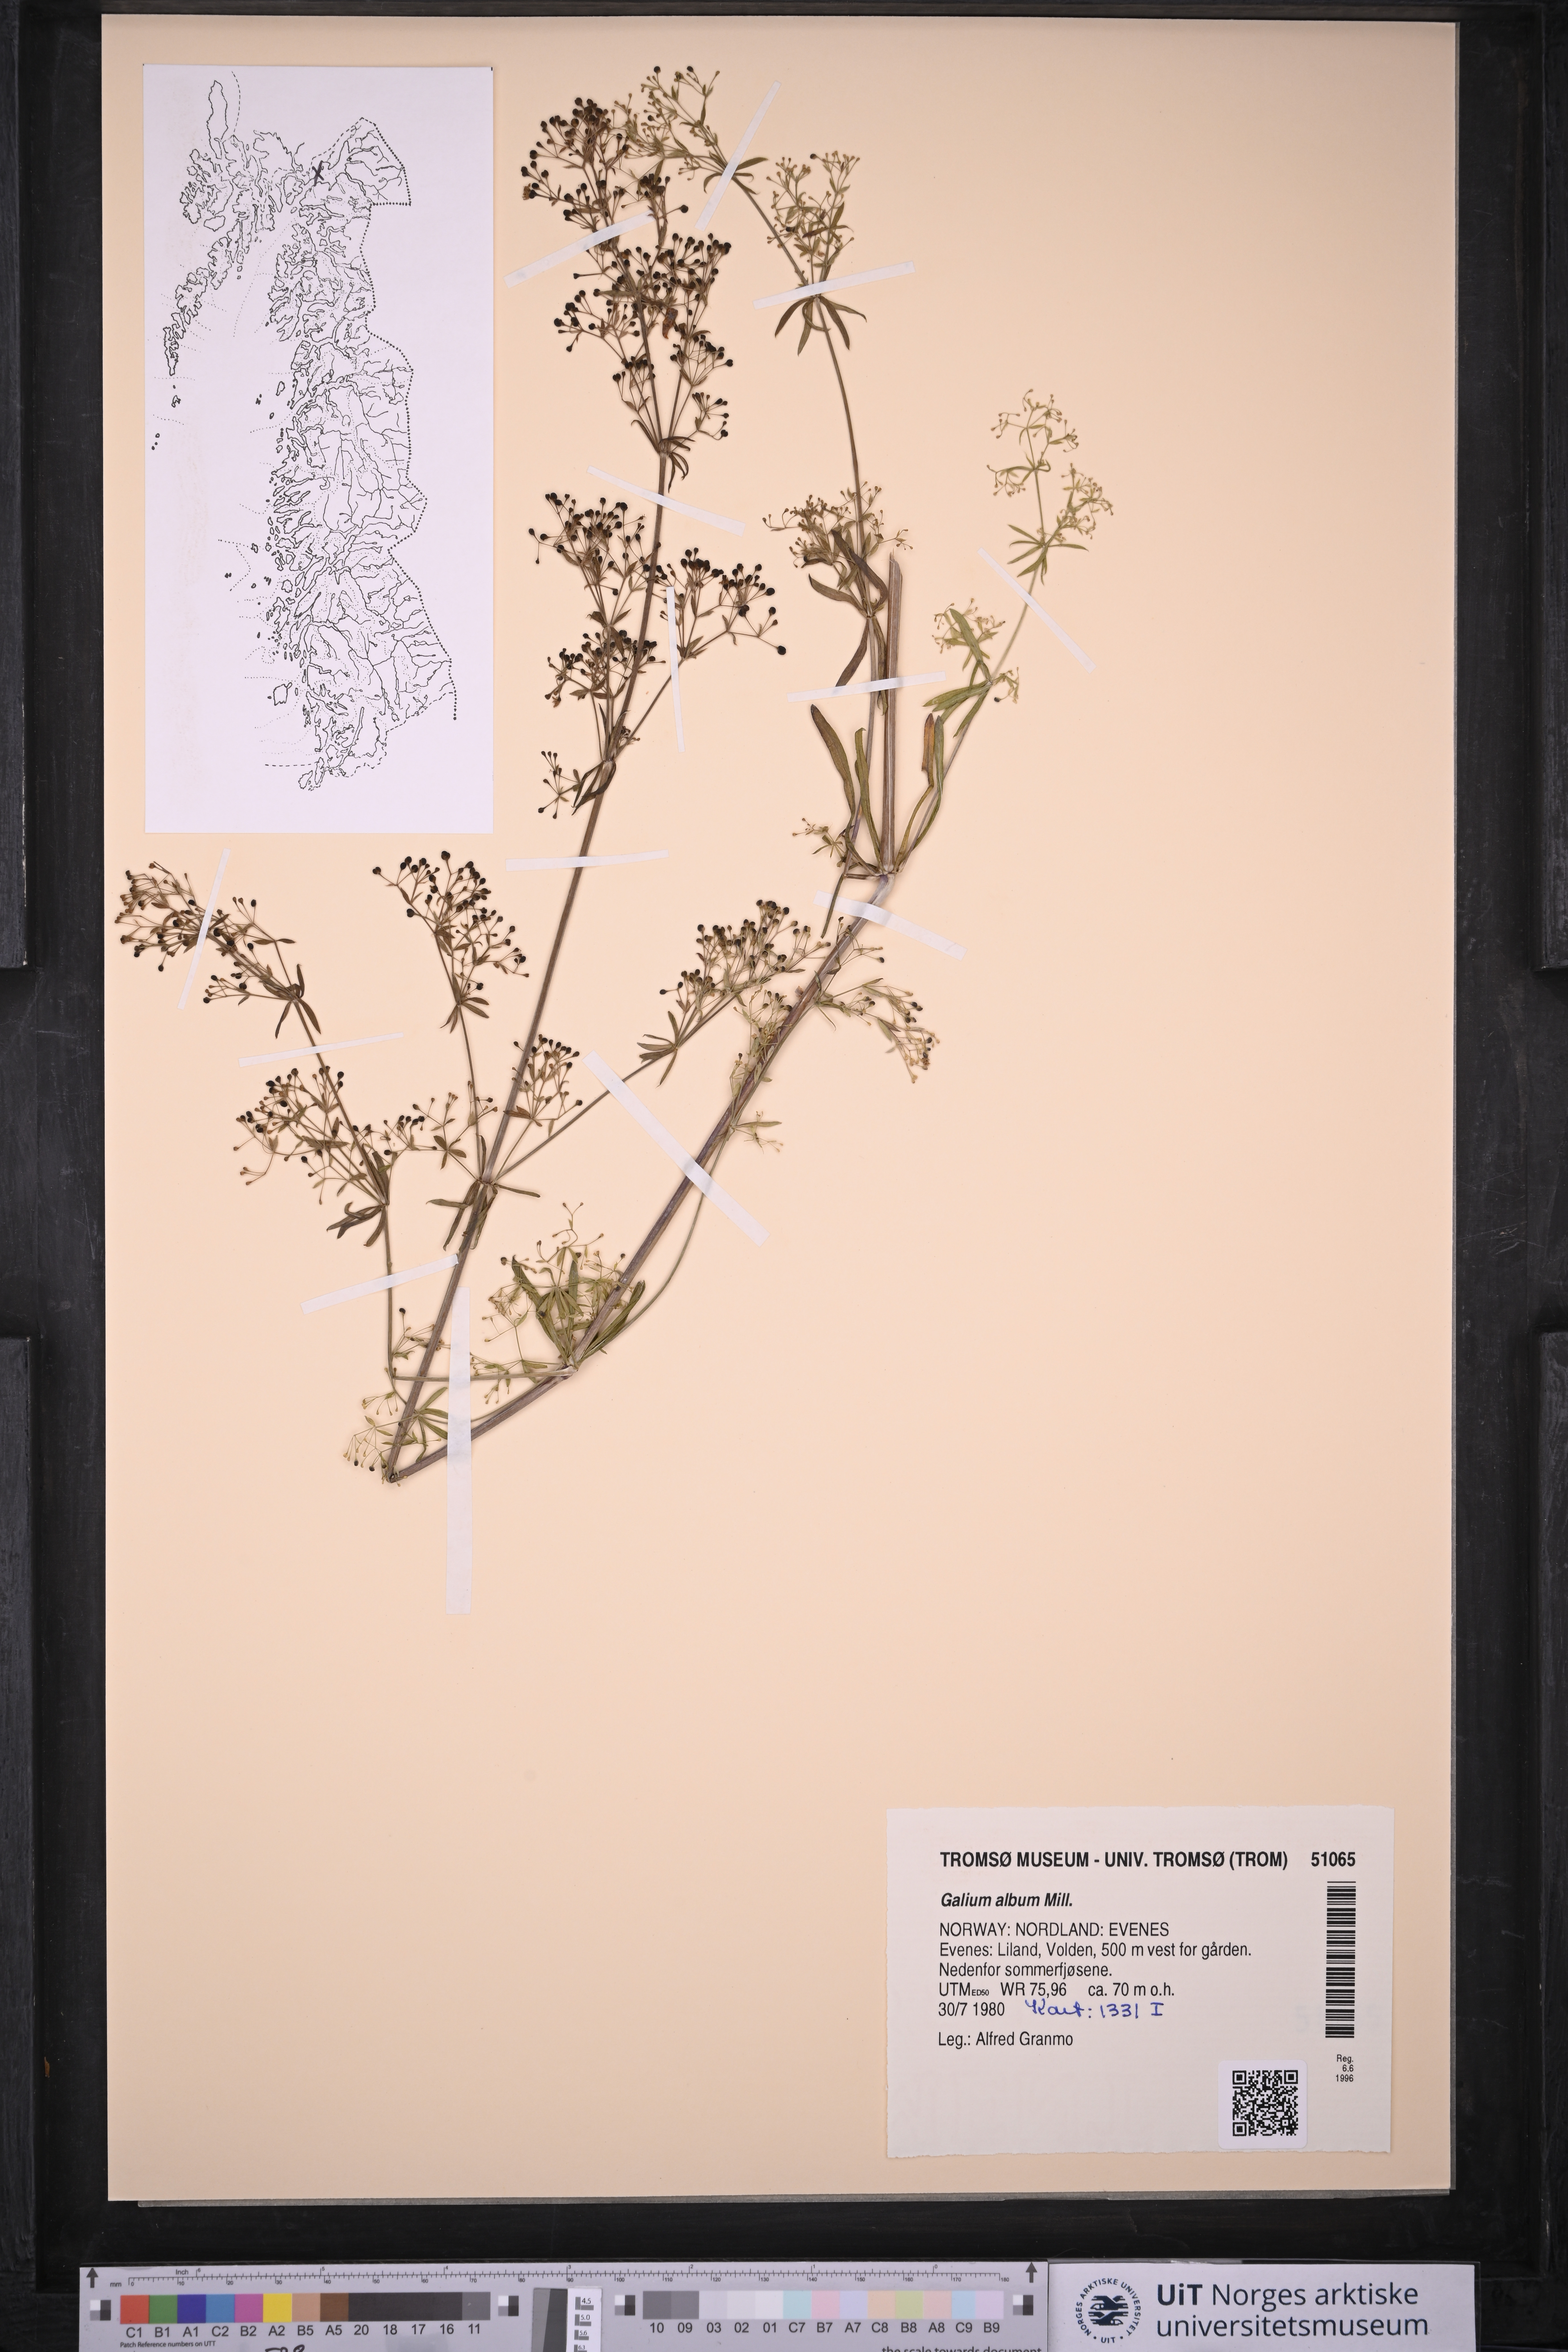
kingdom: Plantae
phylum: Tracheophyta
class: Magnoliopsida
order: Gentianales
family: Rubiaceae
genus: Galium
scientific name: Galium album
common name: White bedstraw
